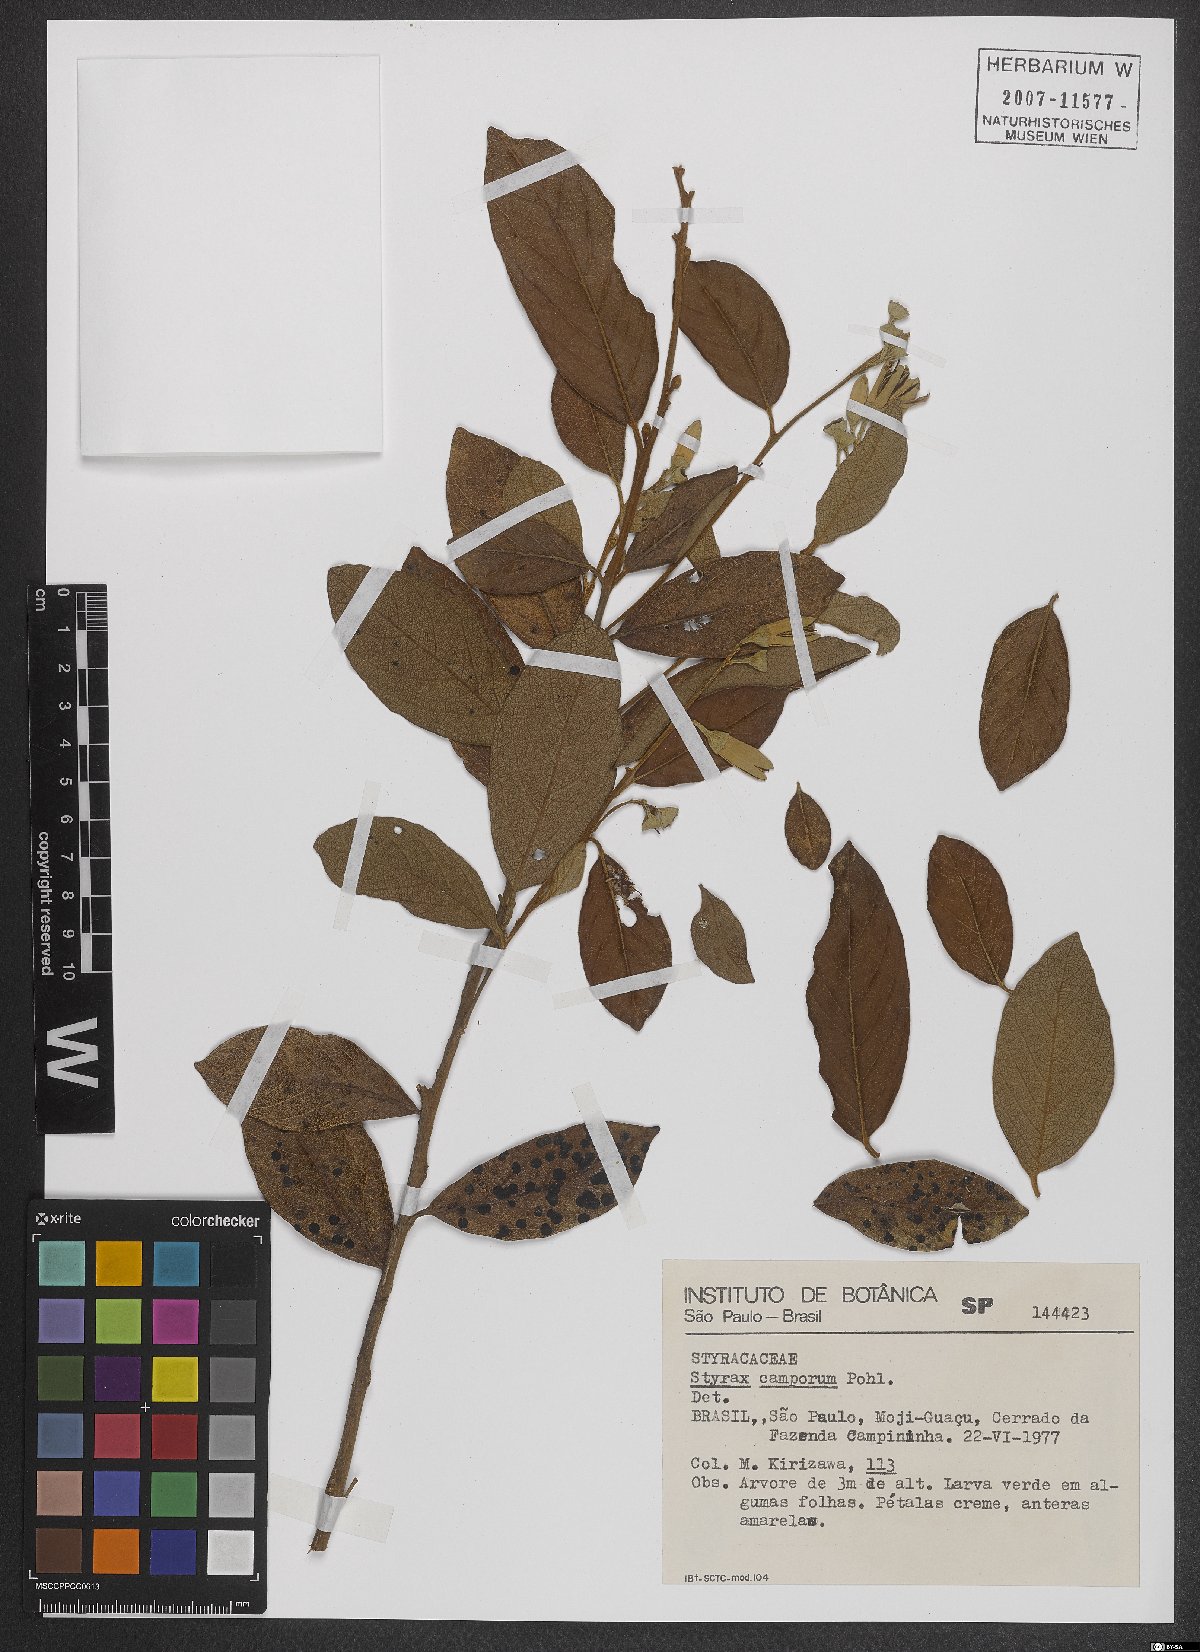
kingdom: Plantae
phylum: Tracheophyta
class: Magnoliopsida
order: Ericales
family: Styracaceae
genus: Styrax
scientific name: Styrax camporum
